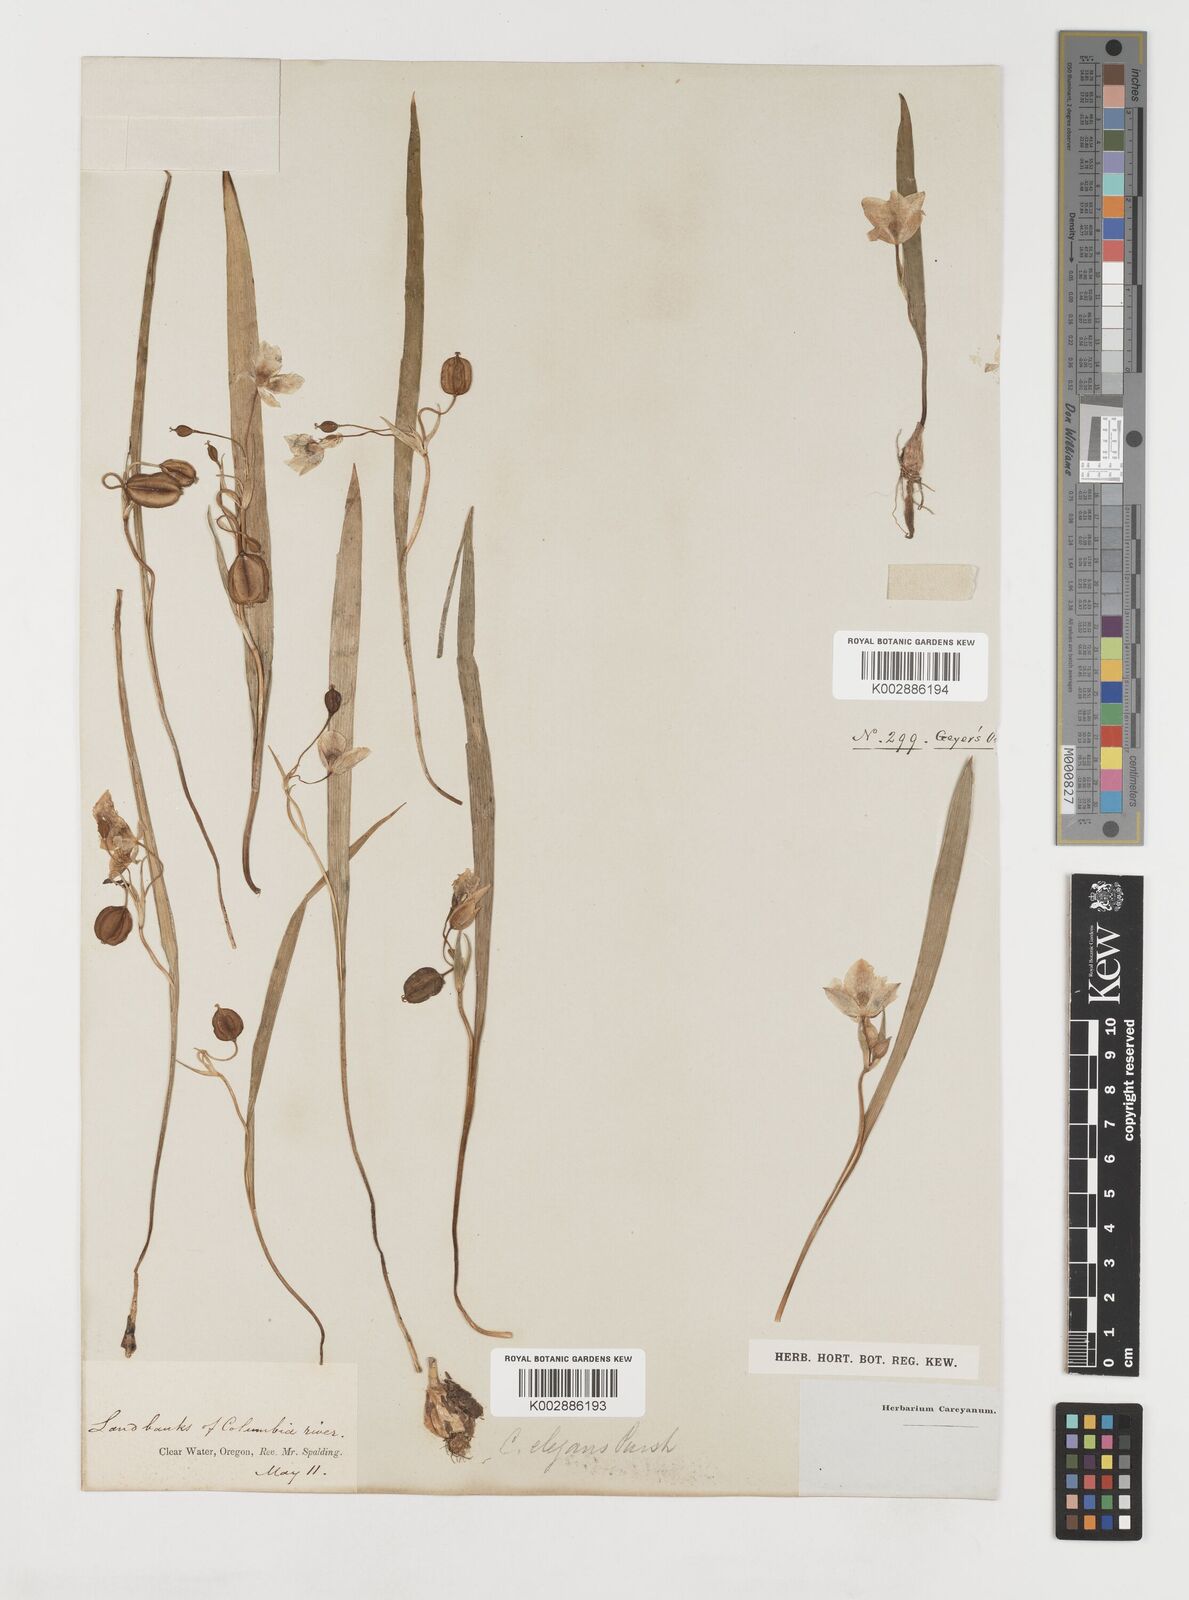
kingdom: Plantae
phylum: Tracheophyta
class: Liliopsida
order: Liliales
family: Liliaceae
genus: Calochortus
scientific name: Calochortus elegans
